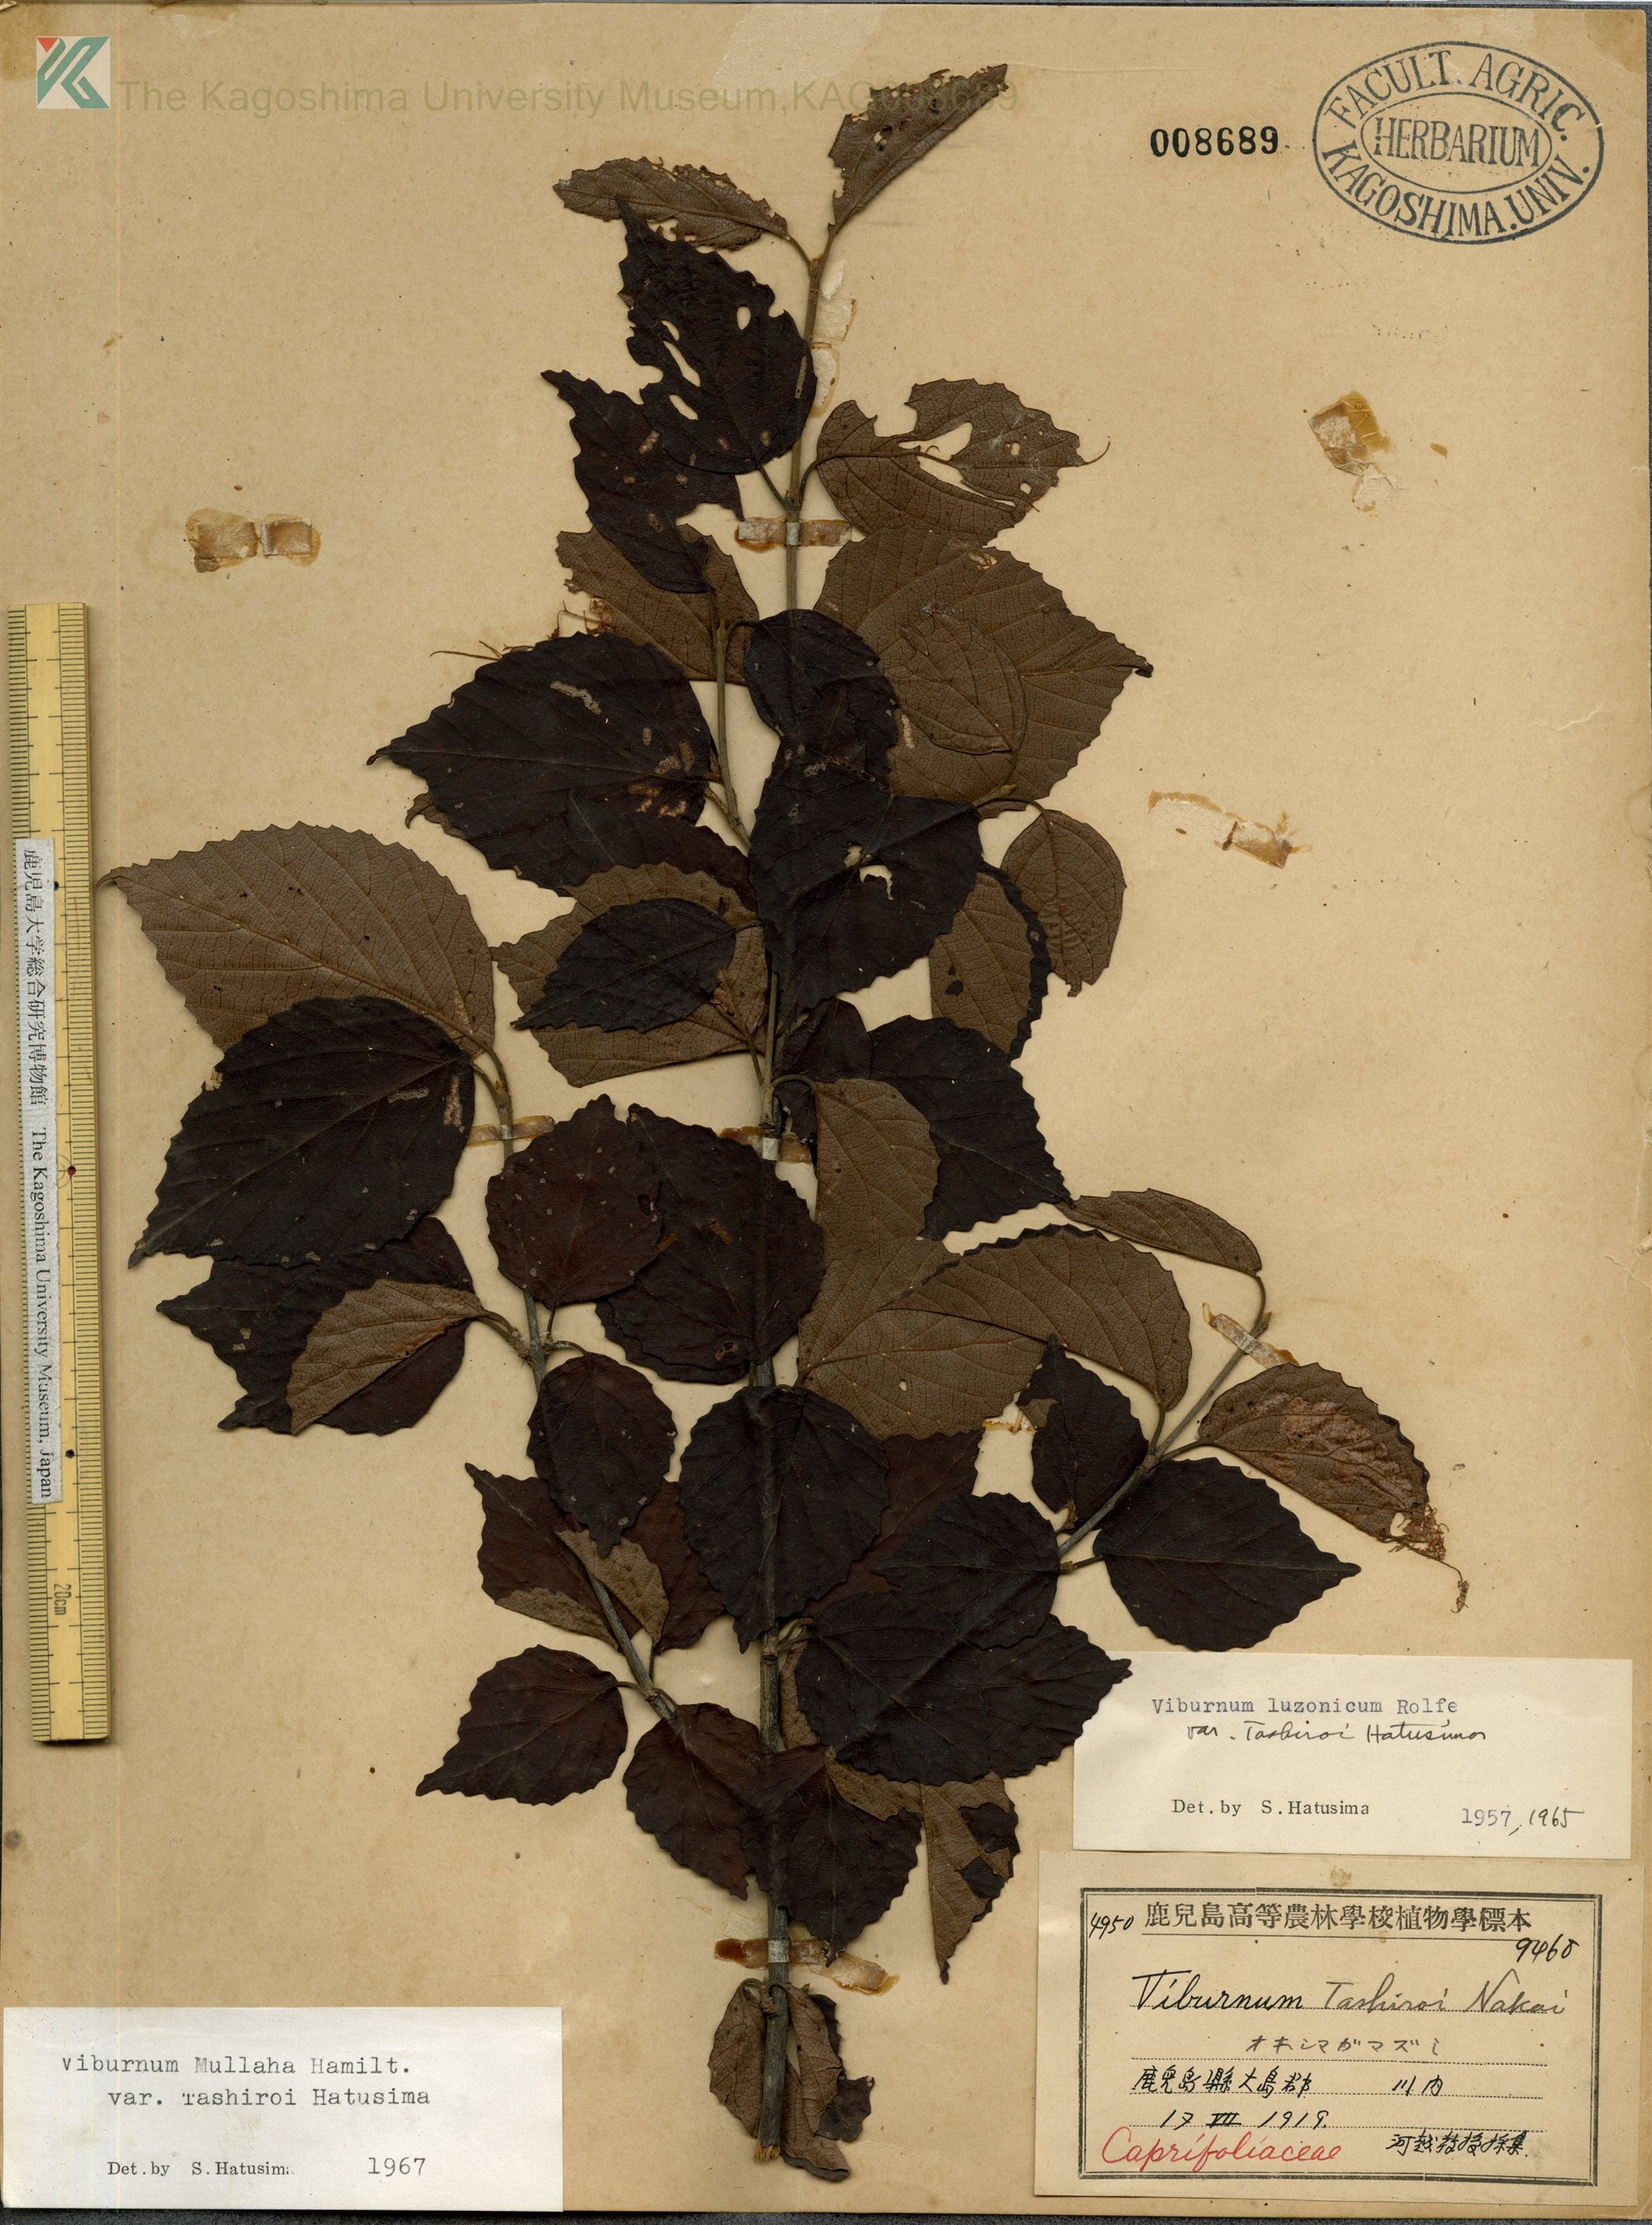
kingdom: Plantae
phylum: Tracheophyta
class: Magnoliopsida
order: Dipsacales
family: Viburnaceae
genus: Viburnum
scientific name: Viburnum luzonicum
